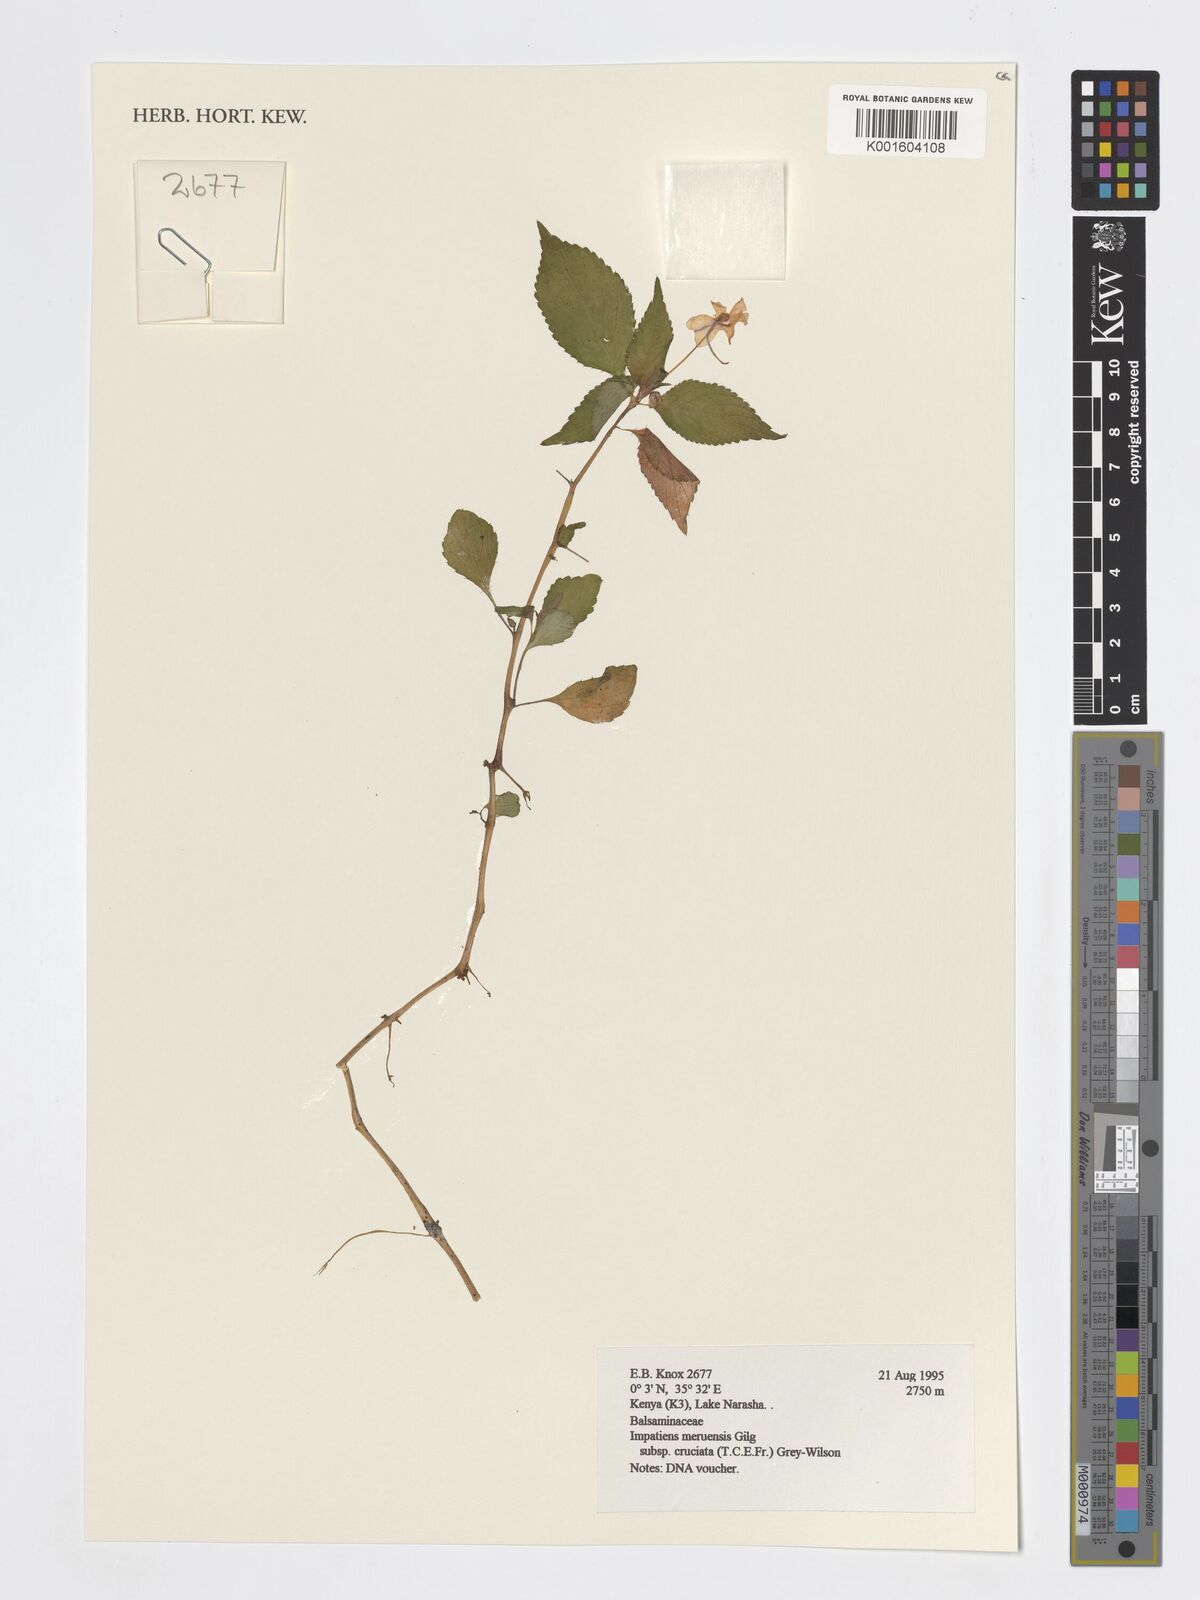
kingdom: Plantae
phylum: Tracheophyta
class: Magnoliopsida
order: Ericales
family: Balsaminaceae
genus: Impatiens
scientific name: Impatiens meruensis
